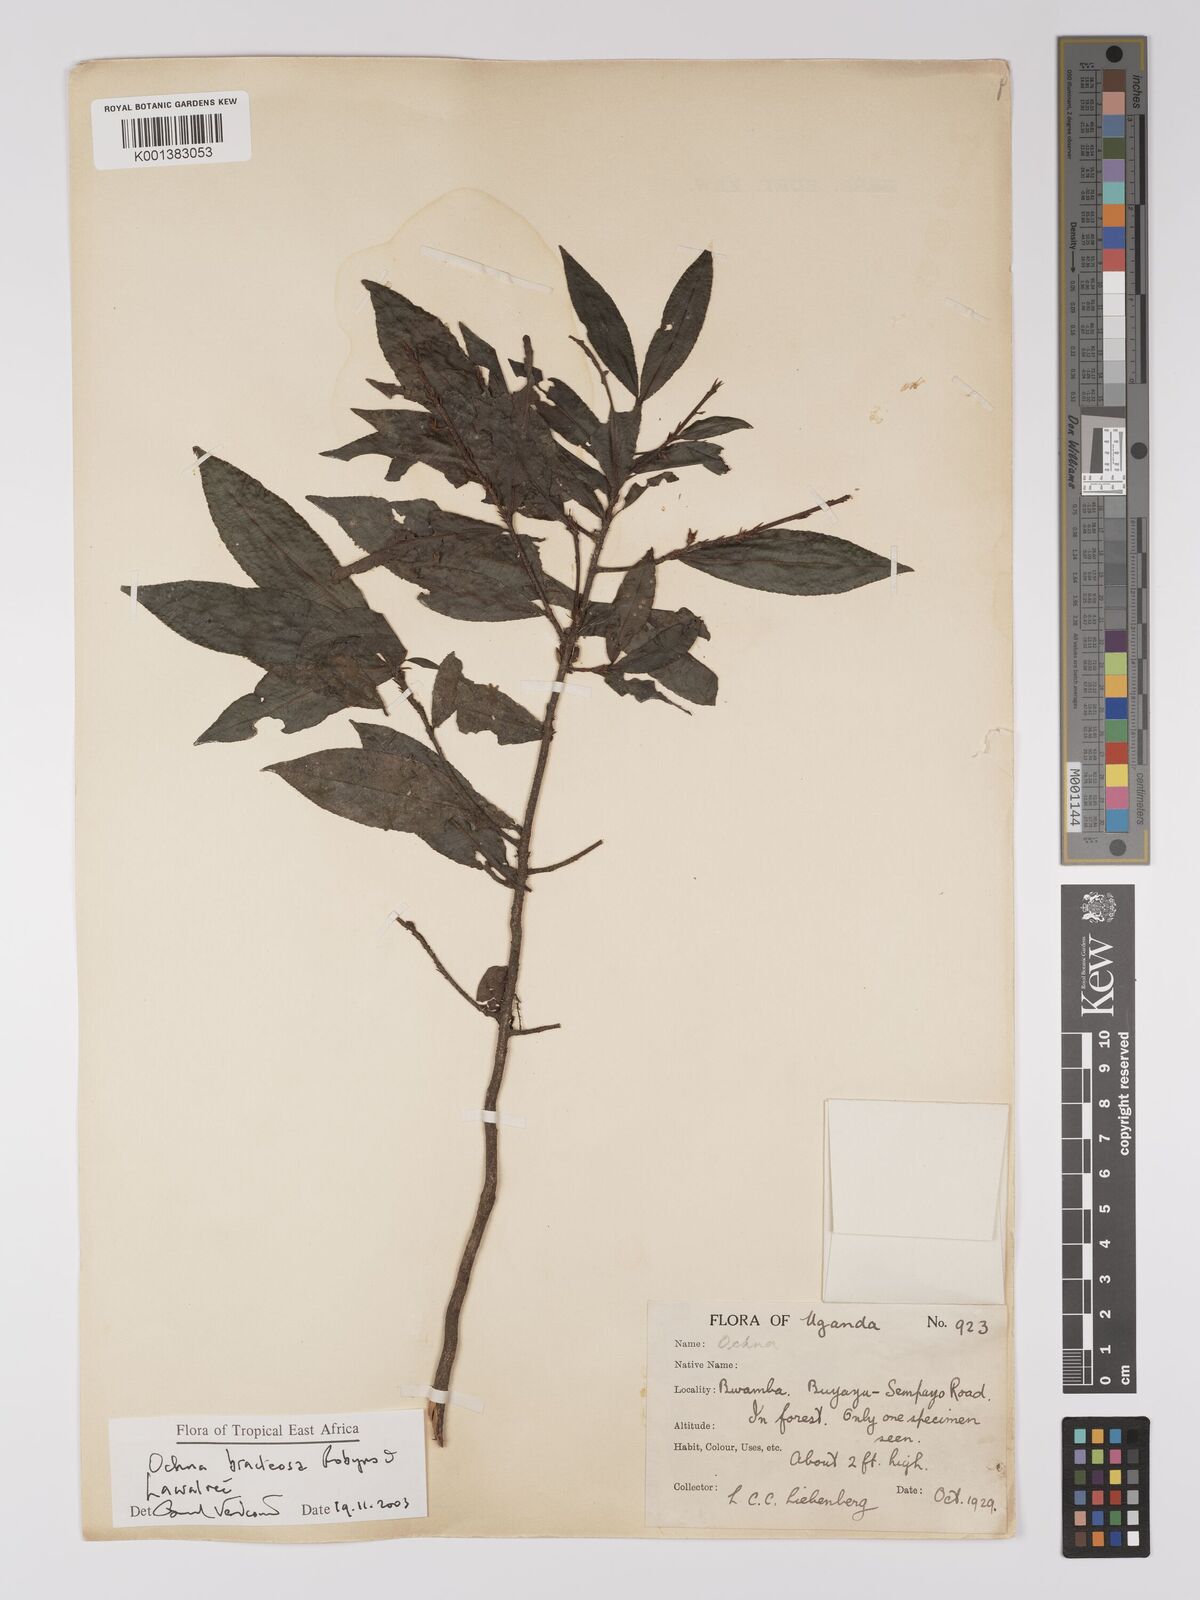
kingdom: Plantae
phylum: Tracheophyta
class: Magnoliopsida
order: Malpighiales
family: Ochnaceae
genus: Ochna
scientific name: Ochna bracteosa
